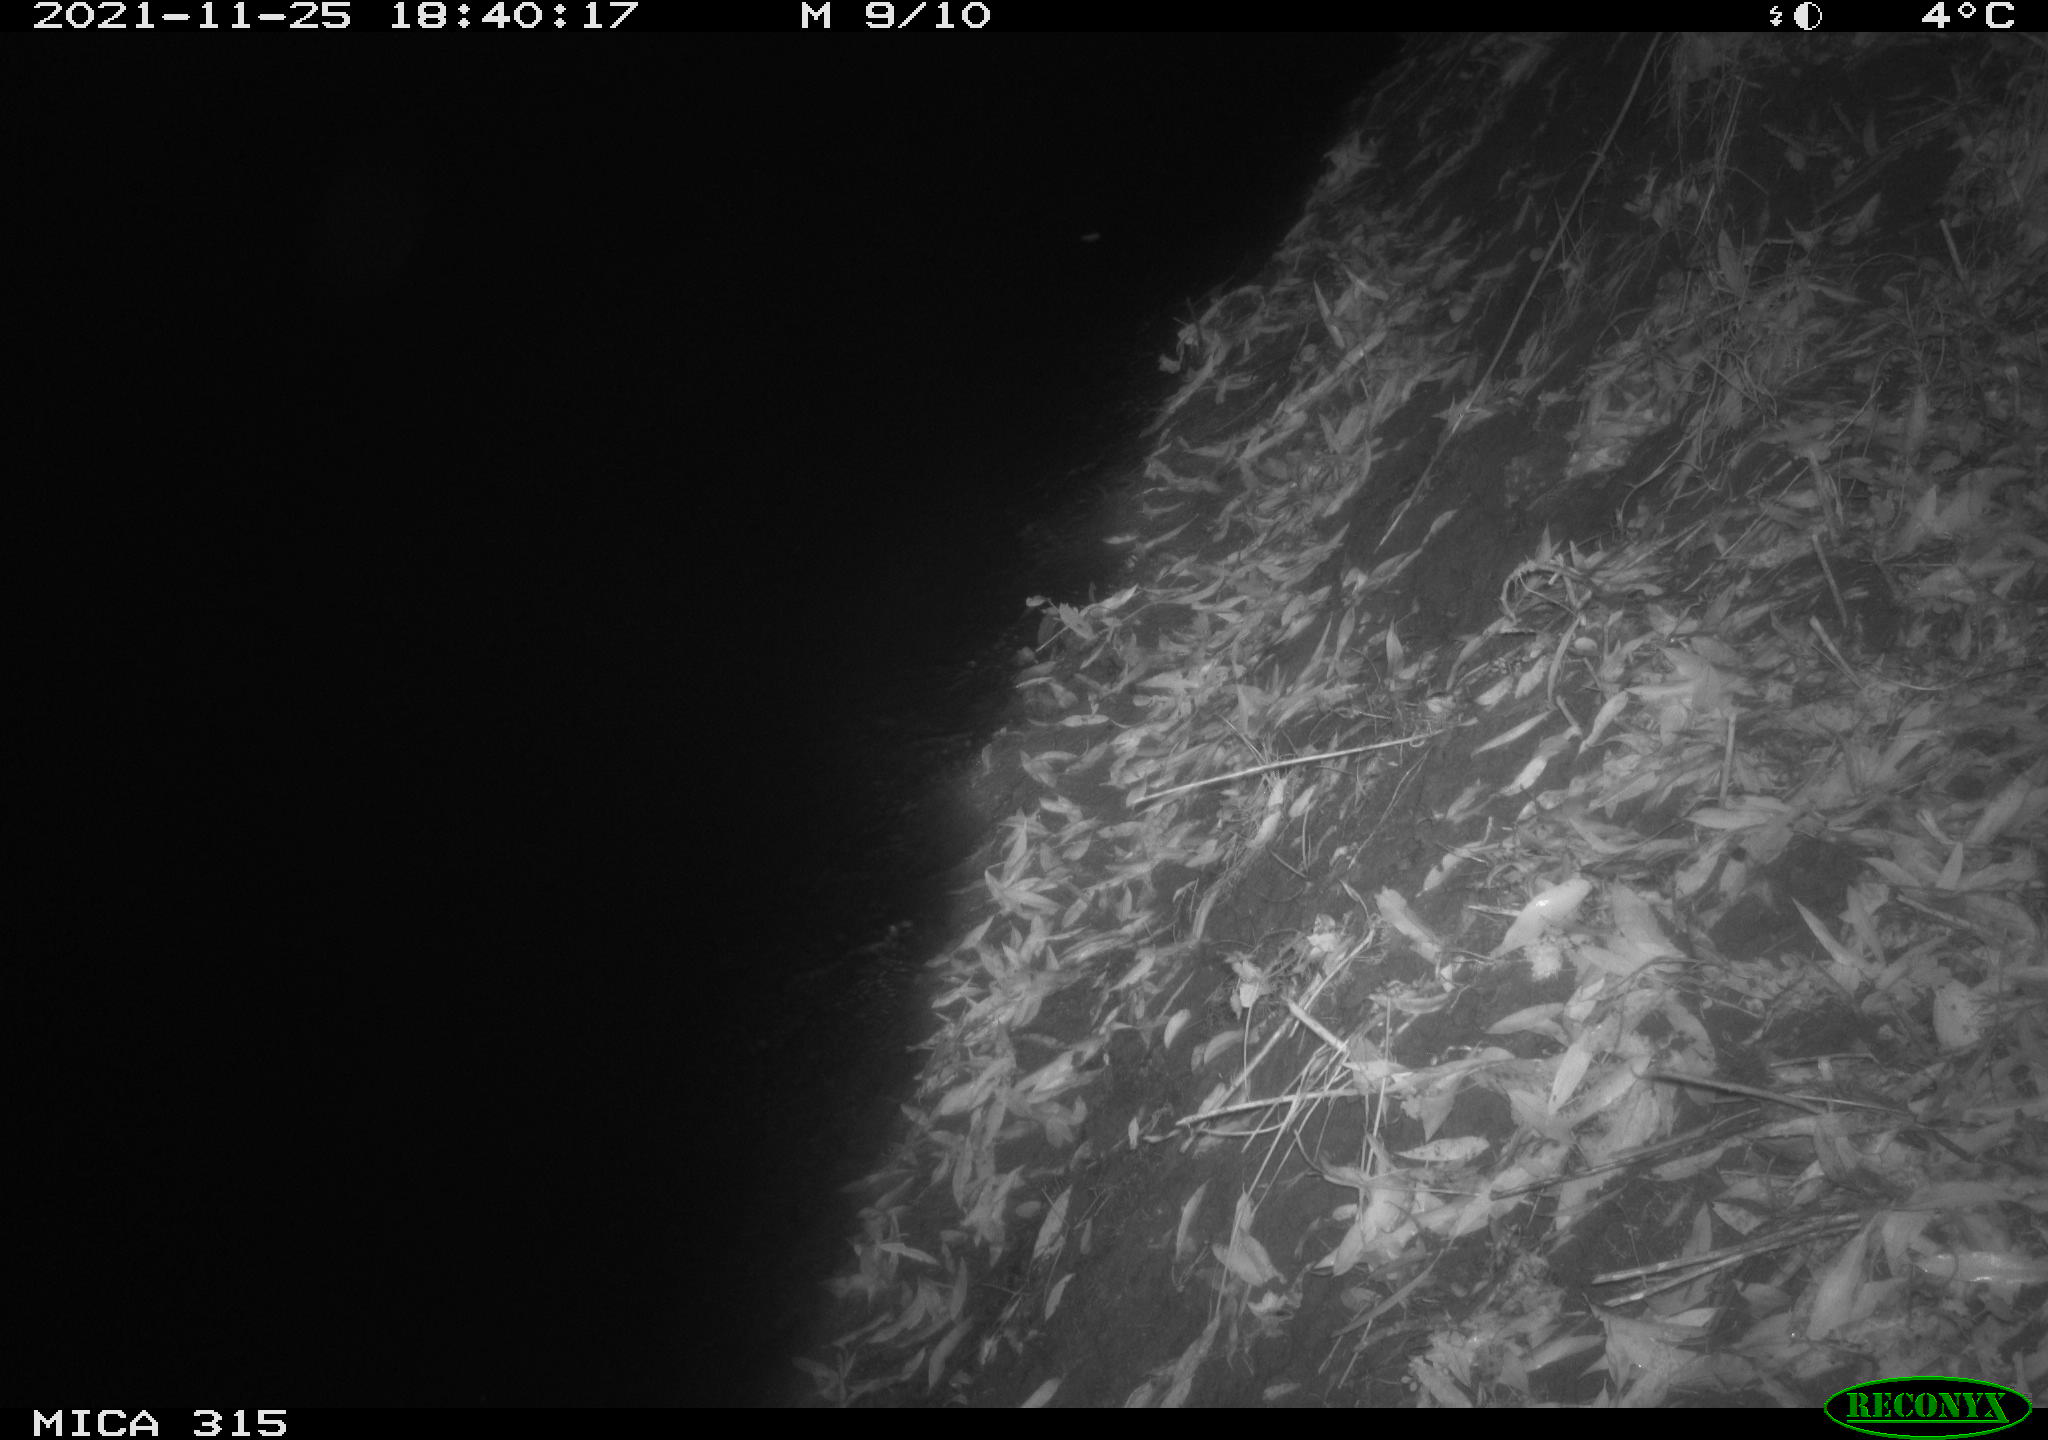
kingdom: Animalia
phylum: Chordata
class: Mammalia
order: Rodentia
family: Muridae
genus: Rattus
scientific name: Rattus norvegicus
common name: Brown rat
